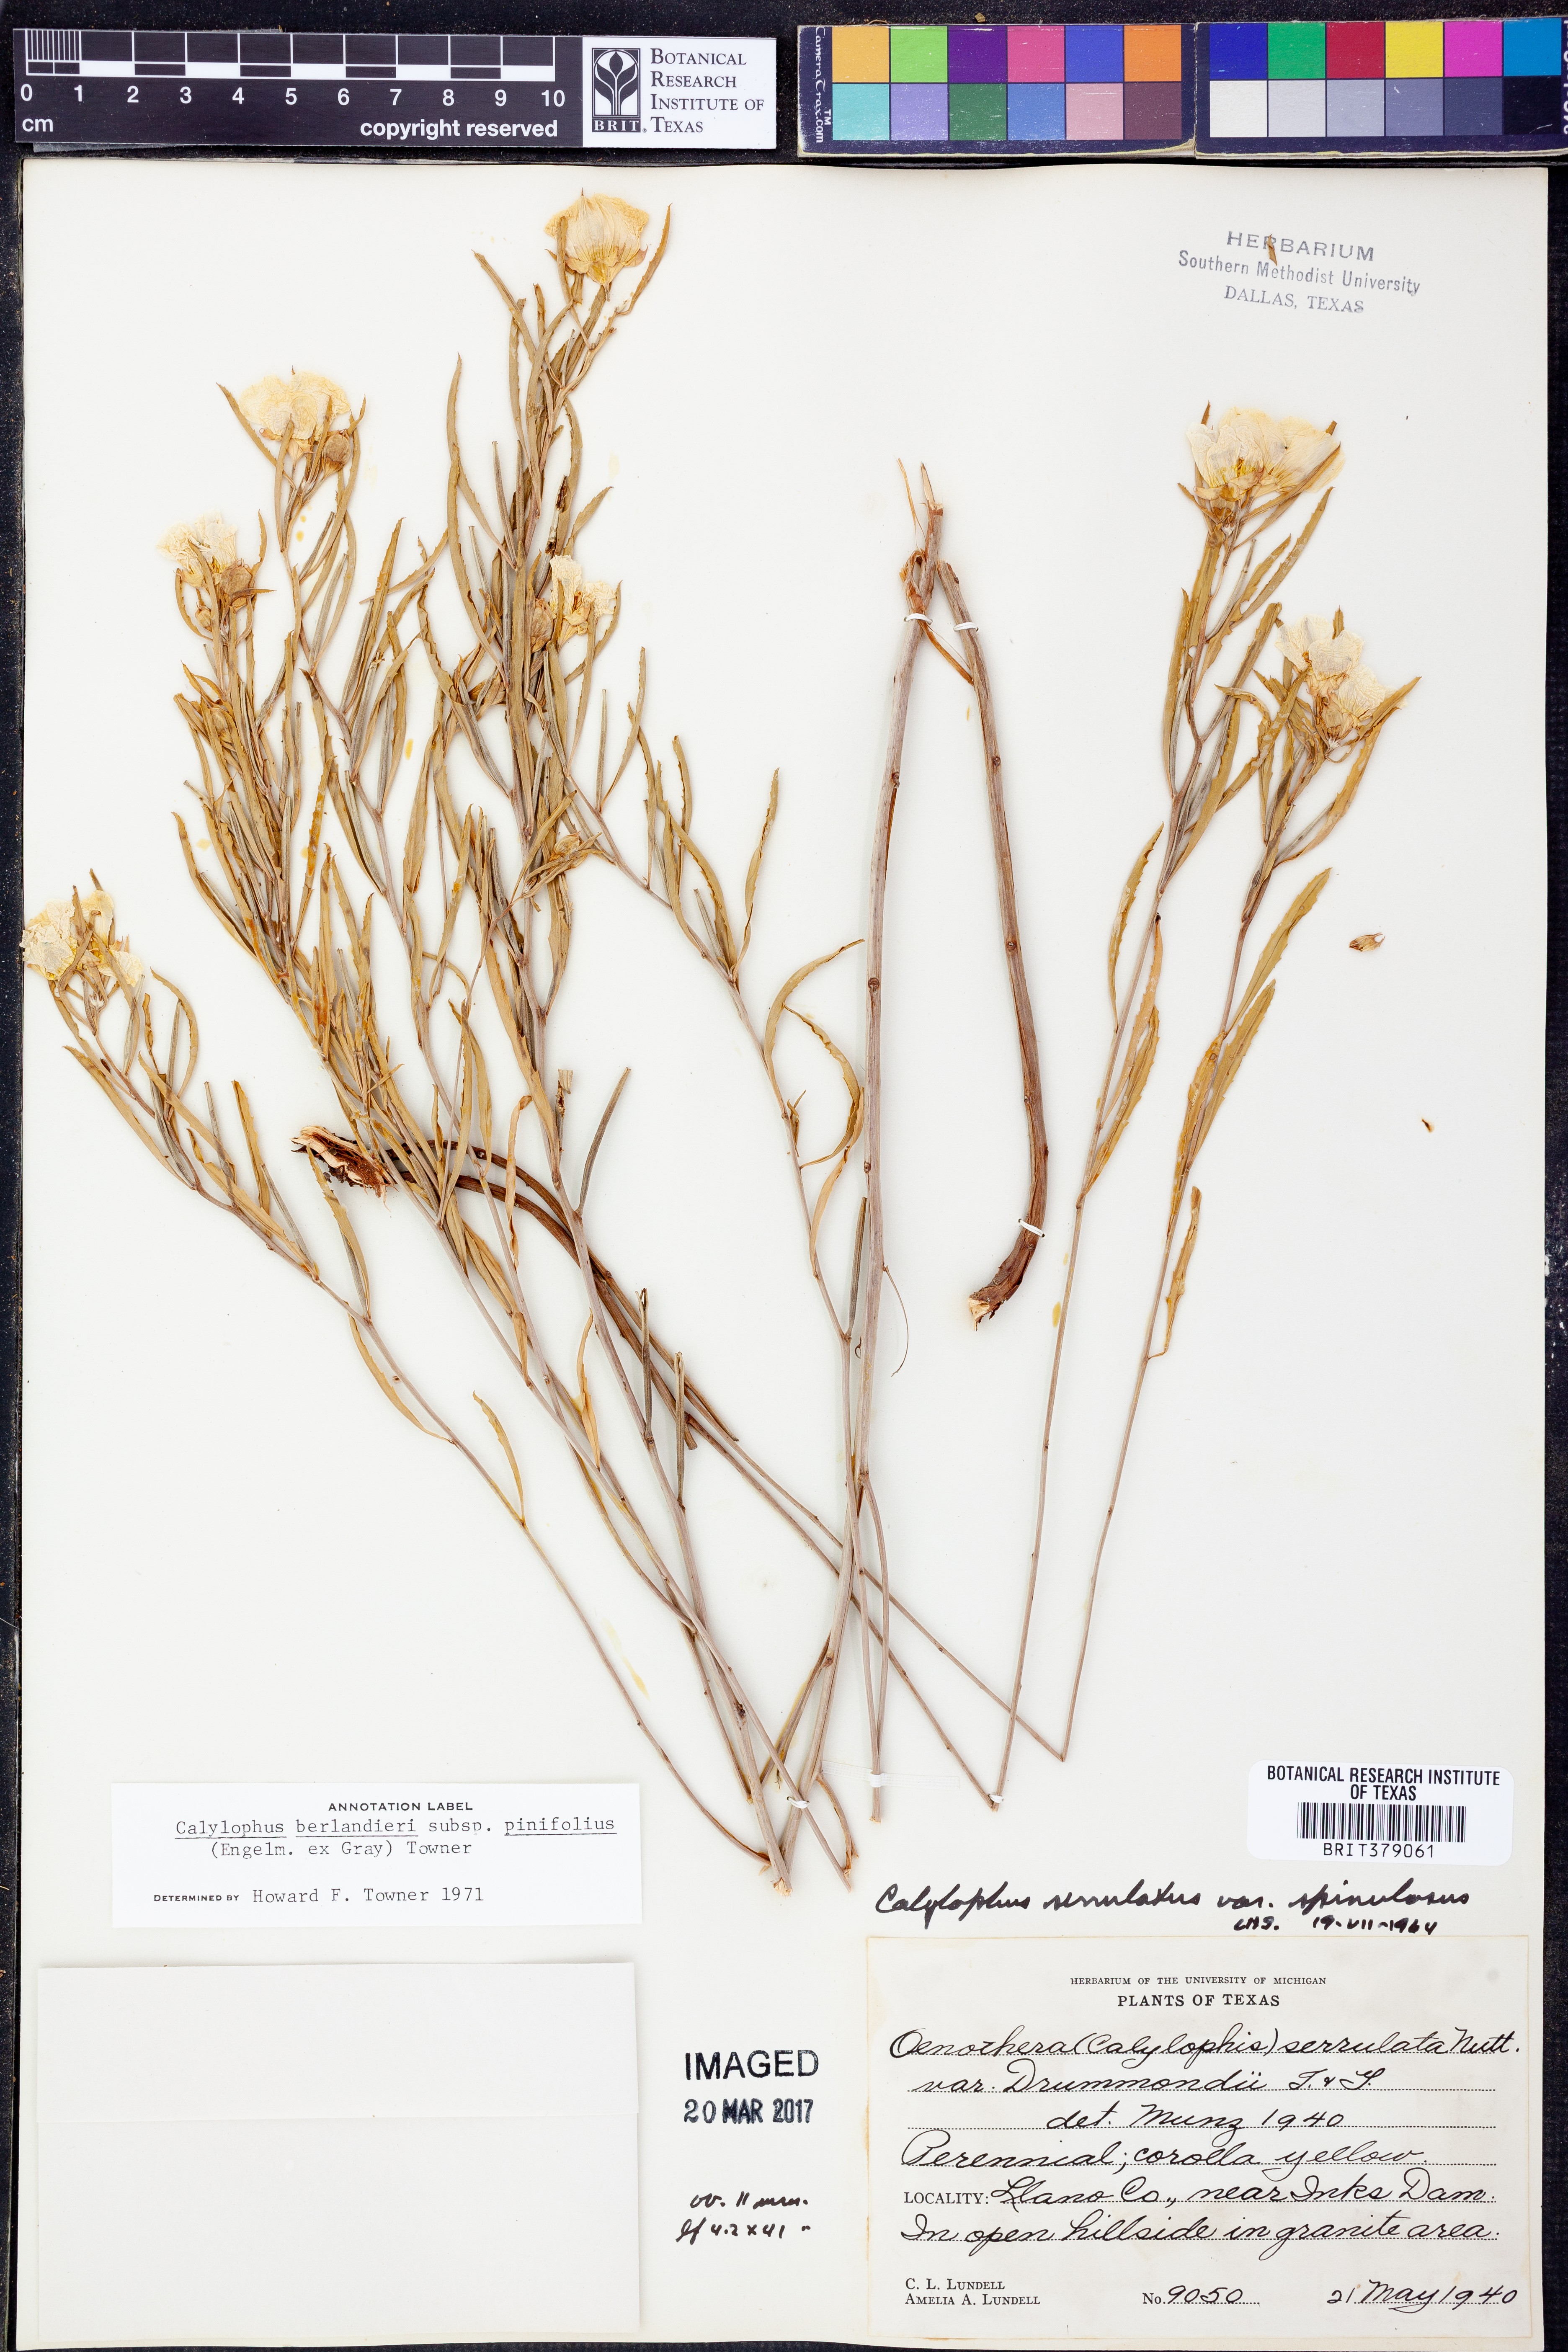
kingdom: Plantae
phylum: Tracheophyta
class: Magnoliopsida
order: Myrtales
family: Onagraceae
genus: Oenothera
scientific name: Oenothera serrulata
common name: Half-shrub calylophus
